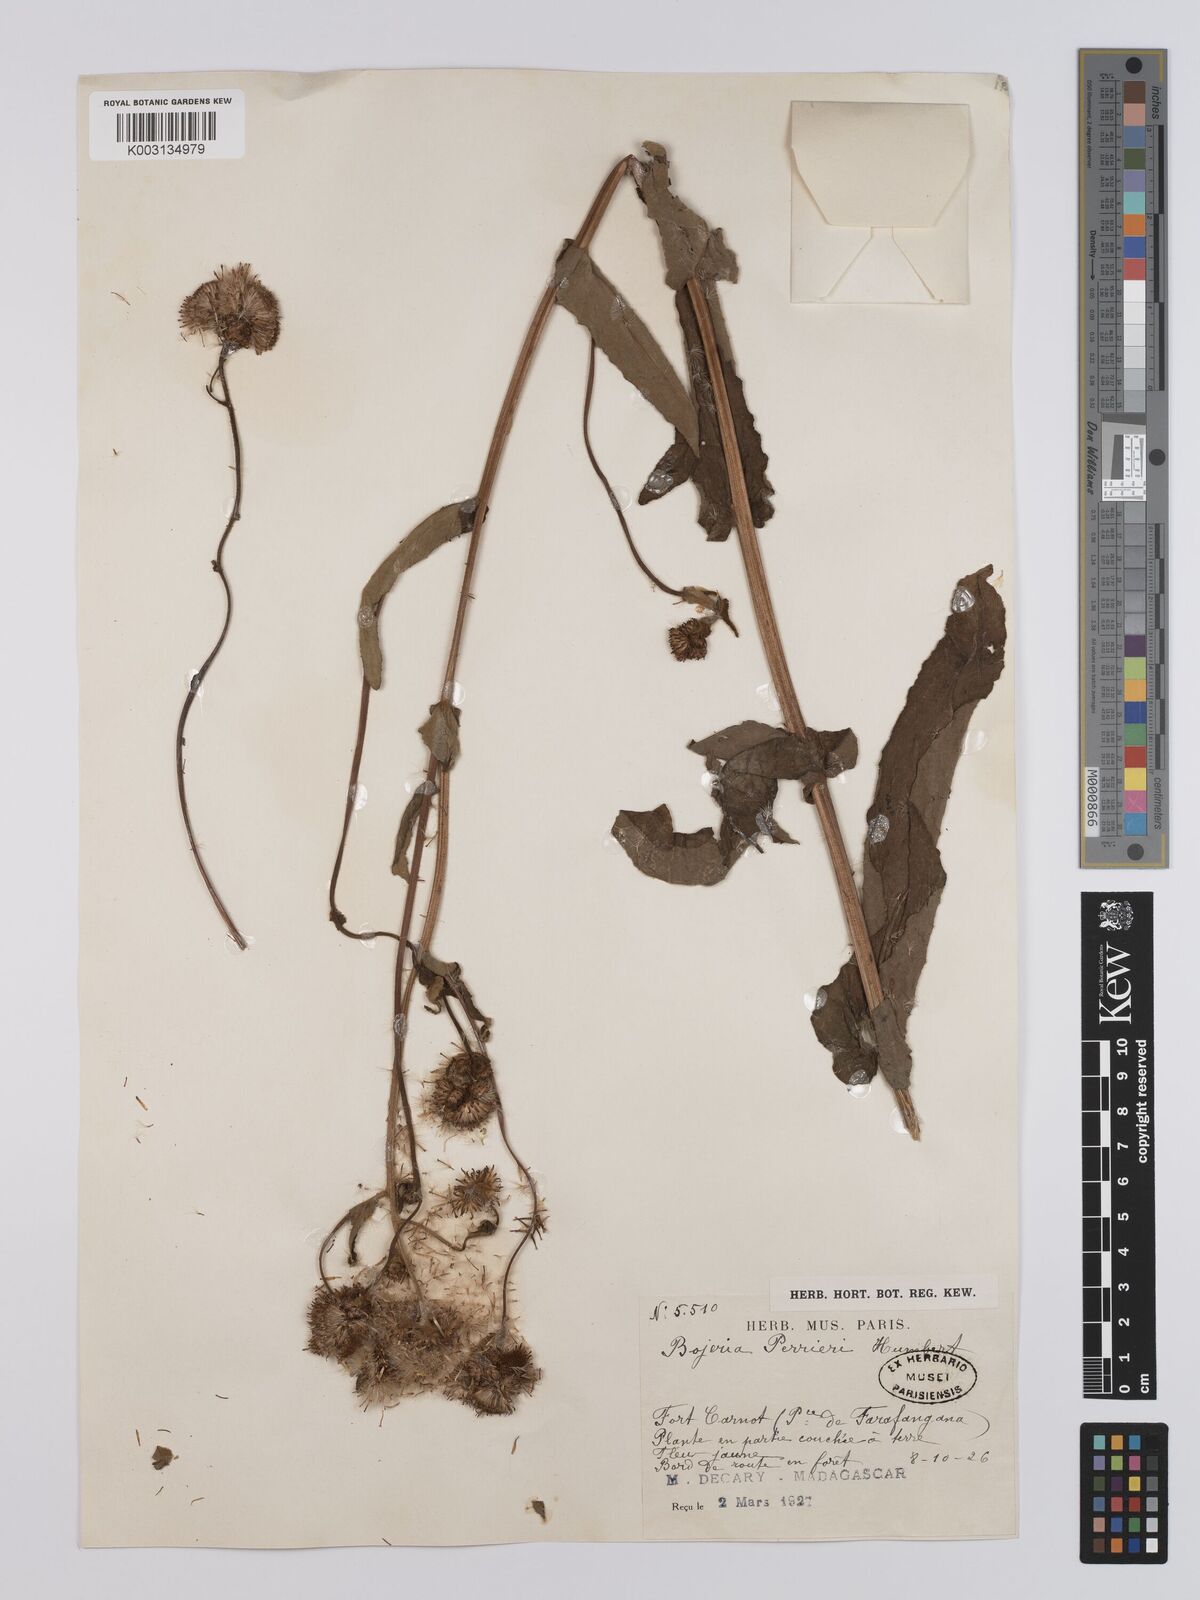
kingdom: Plantae
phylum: Tracheophyta
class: Magnoliopsida
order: Asterales
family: Asteraceae
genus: Inula
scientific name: Inula perrieri
